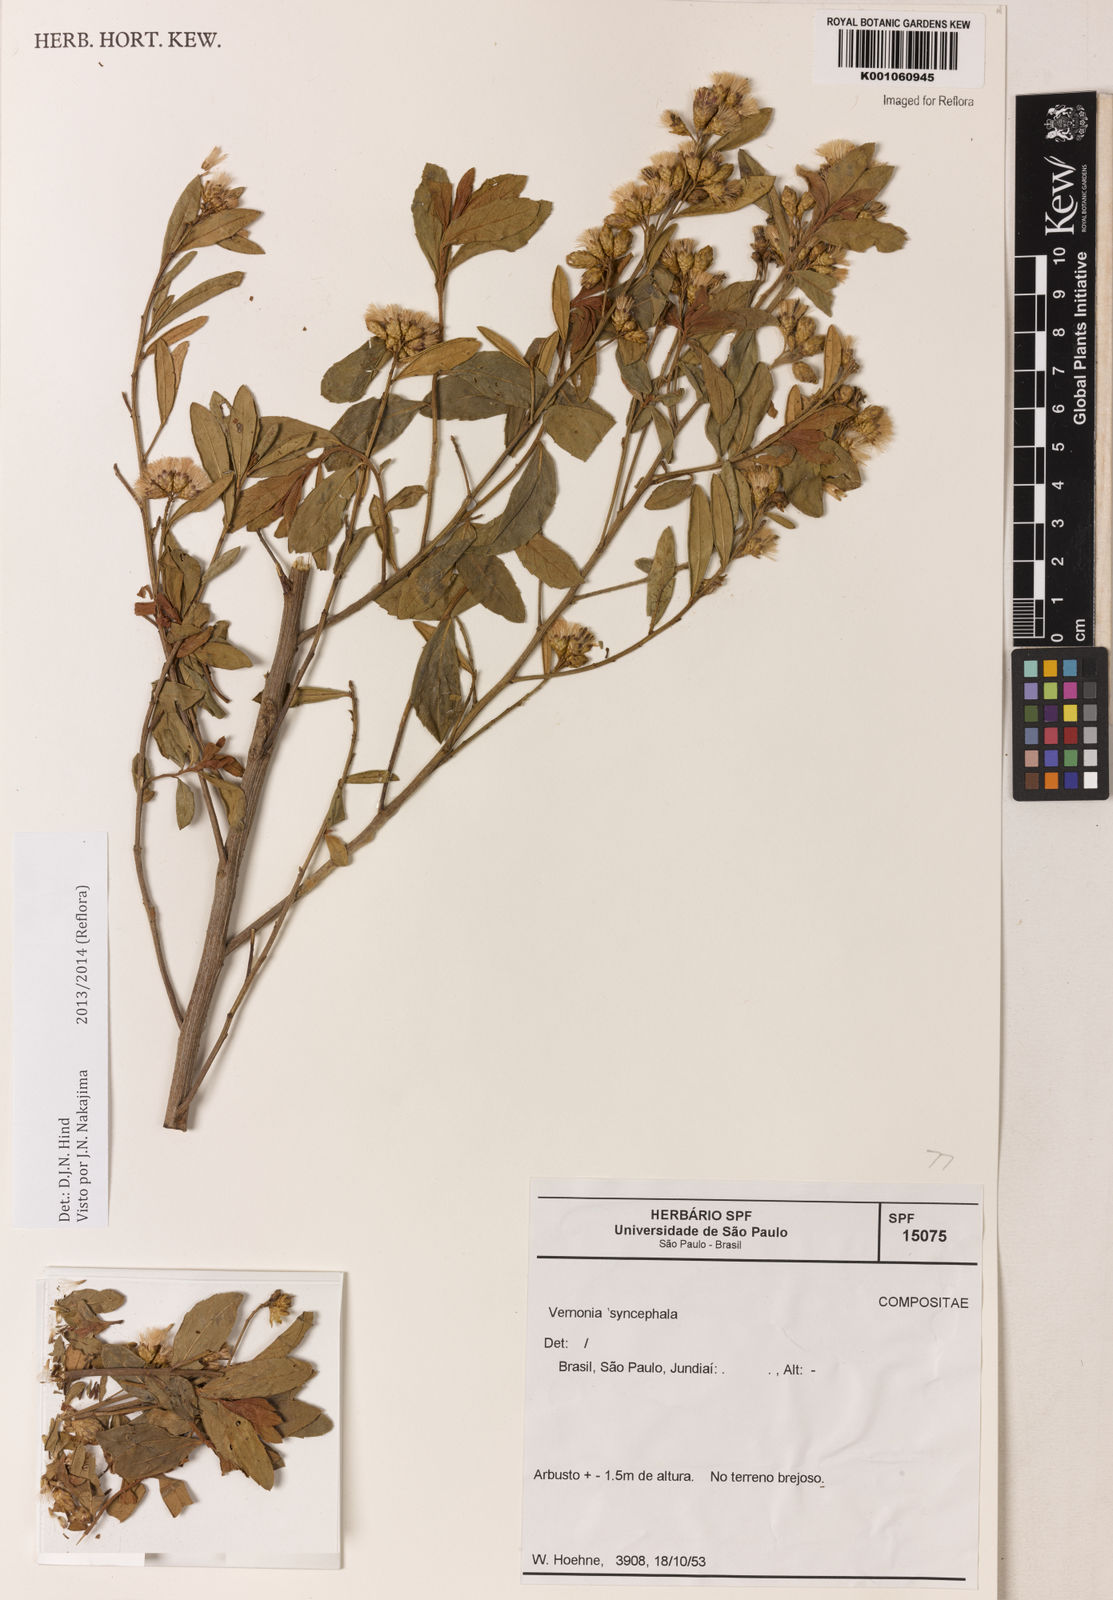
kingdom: Plantae
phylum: Tracheophyta
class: Magnoliopsida
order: Asterales
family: Asteraceae
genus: Vernonanthura
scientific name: Vernonanthura ferruginea
